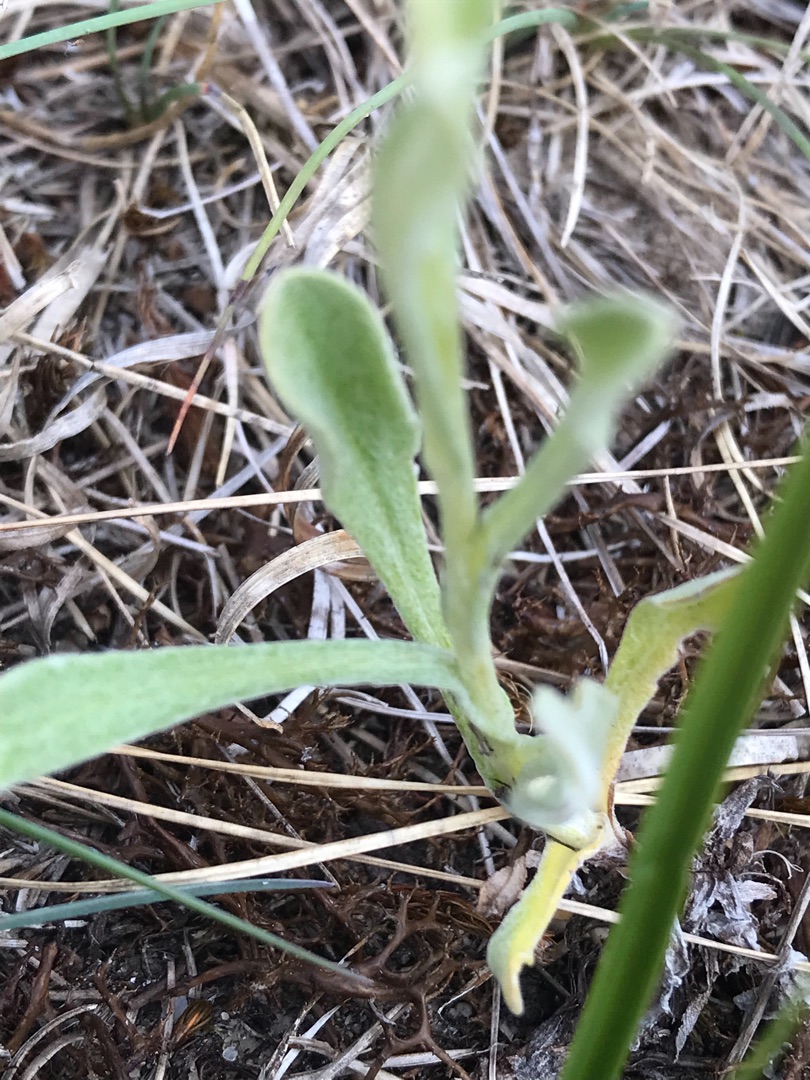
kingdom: Plantae
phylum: Tracheophyta
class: Magnoliopsida
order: Asterales
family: Asteraceae
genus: Helichrysum
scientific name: Helichrysum arenarium
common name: Gul evighedsblomst
